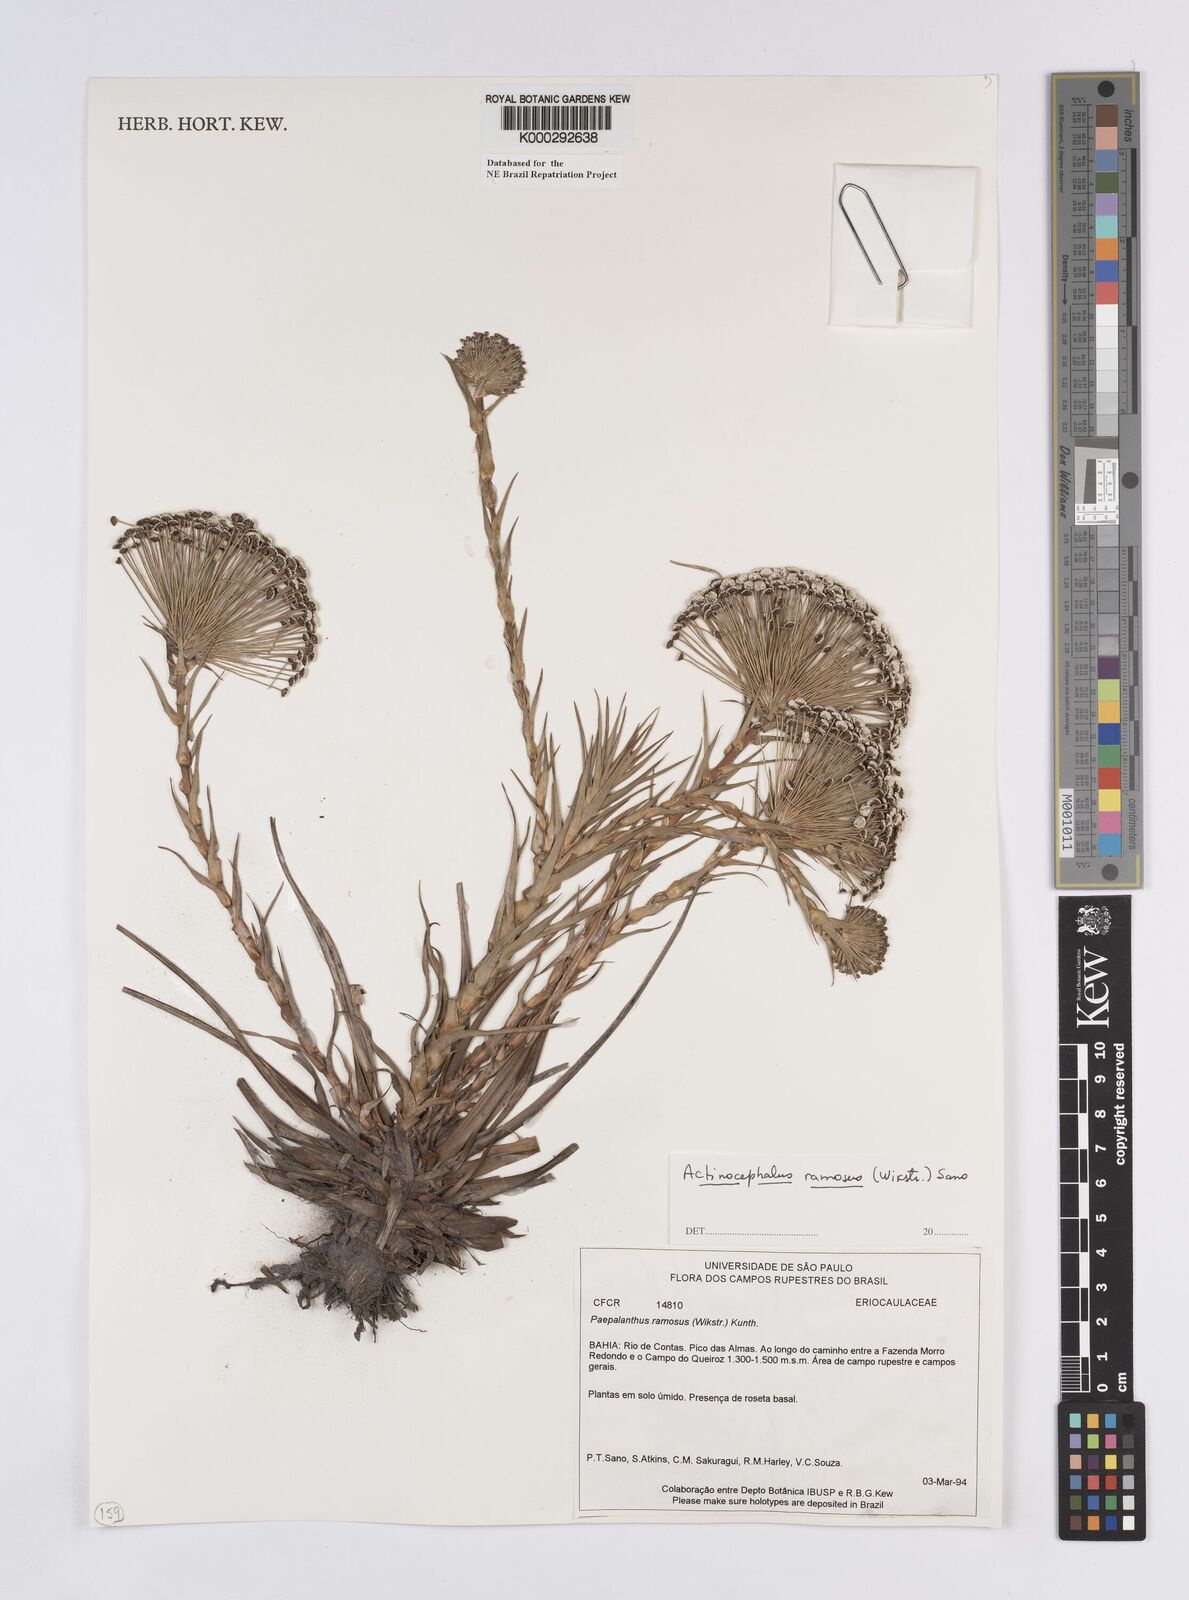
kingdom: Plantae
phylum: Tracheophyta
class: Liliopsida
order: Poales
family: Eriocaulaceae
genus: Paepalanthus
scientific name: Paepalanthus ramosus
